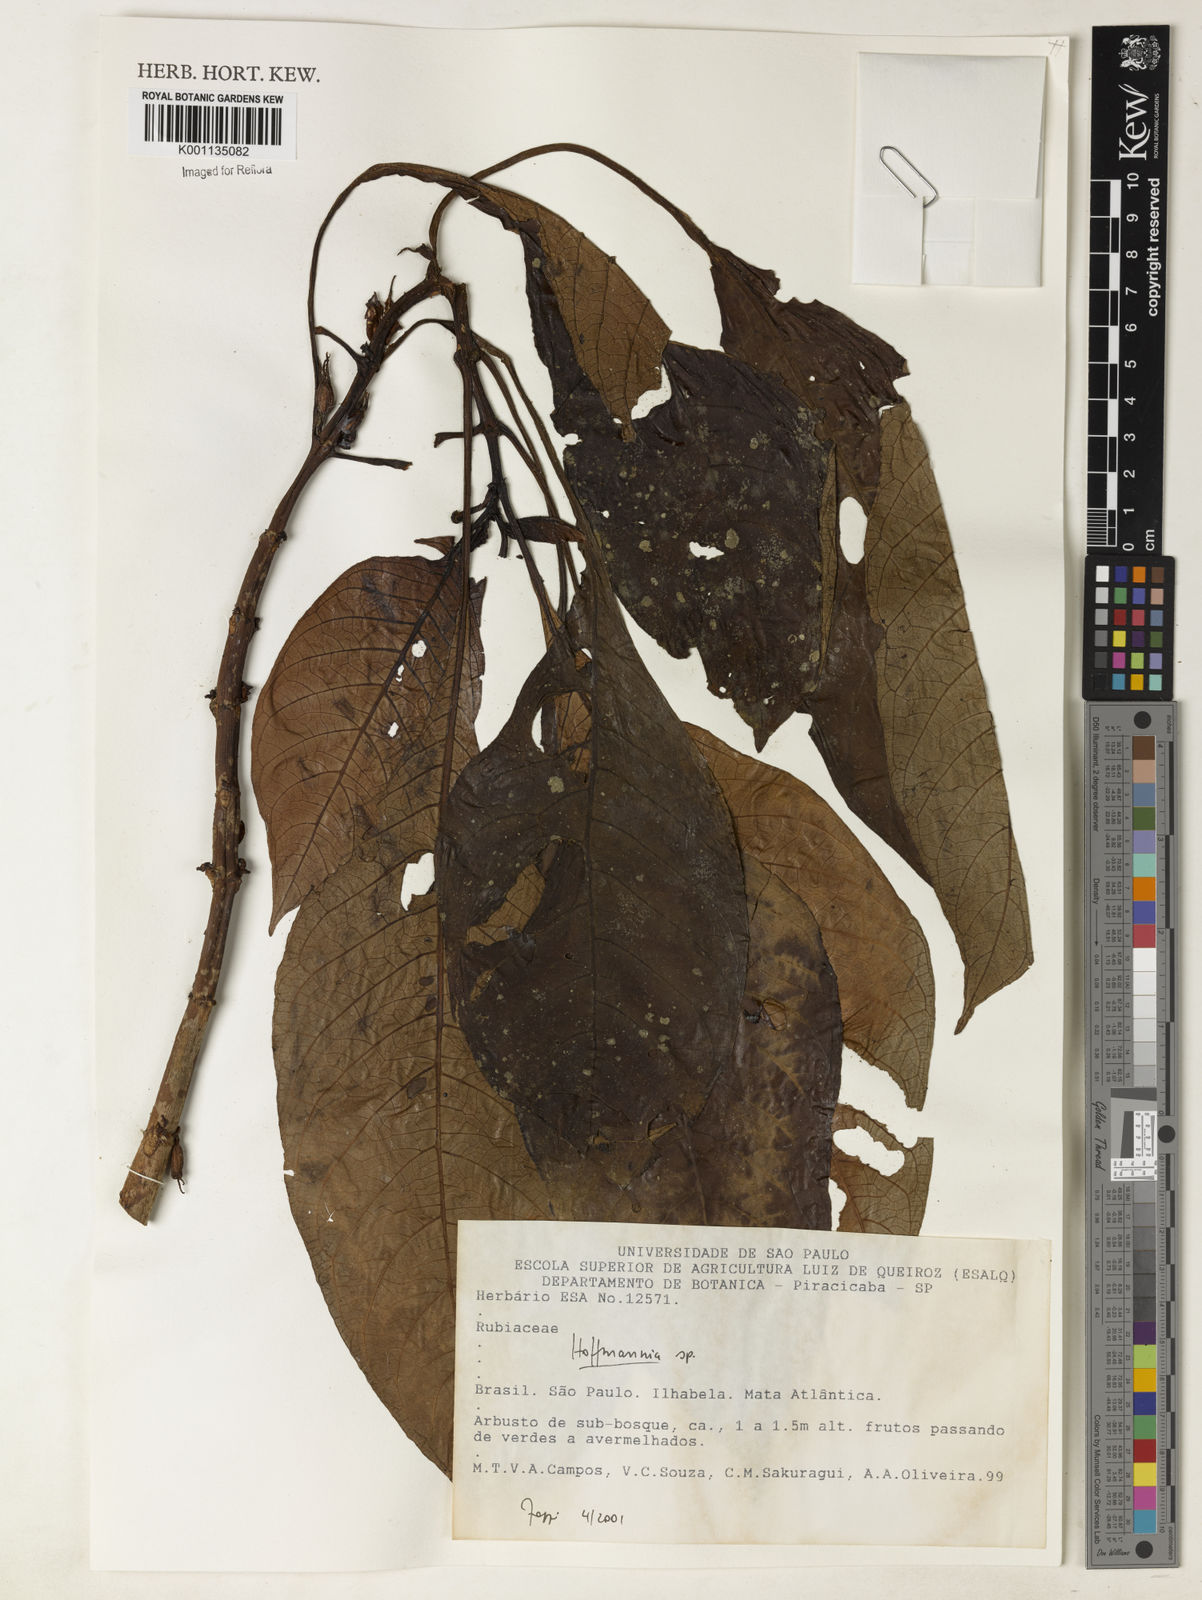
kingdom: Plantae
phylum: Tracheophyta
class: Magnoliopsida
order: Gentianales
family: Rubiaceae
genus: Hoffmannia
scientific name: Hoffmannia peckii
